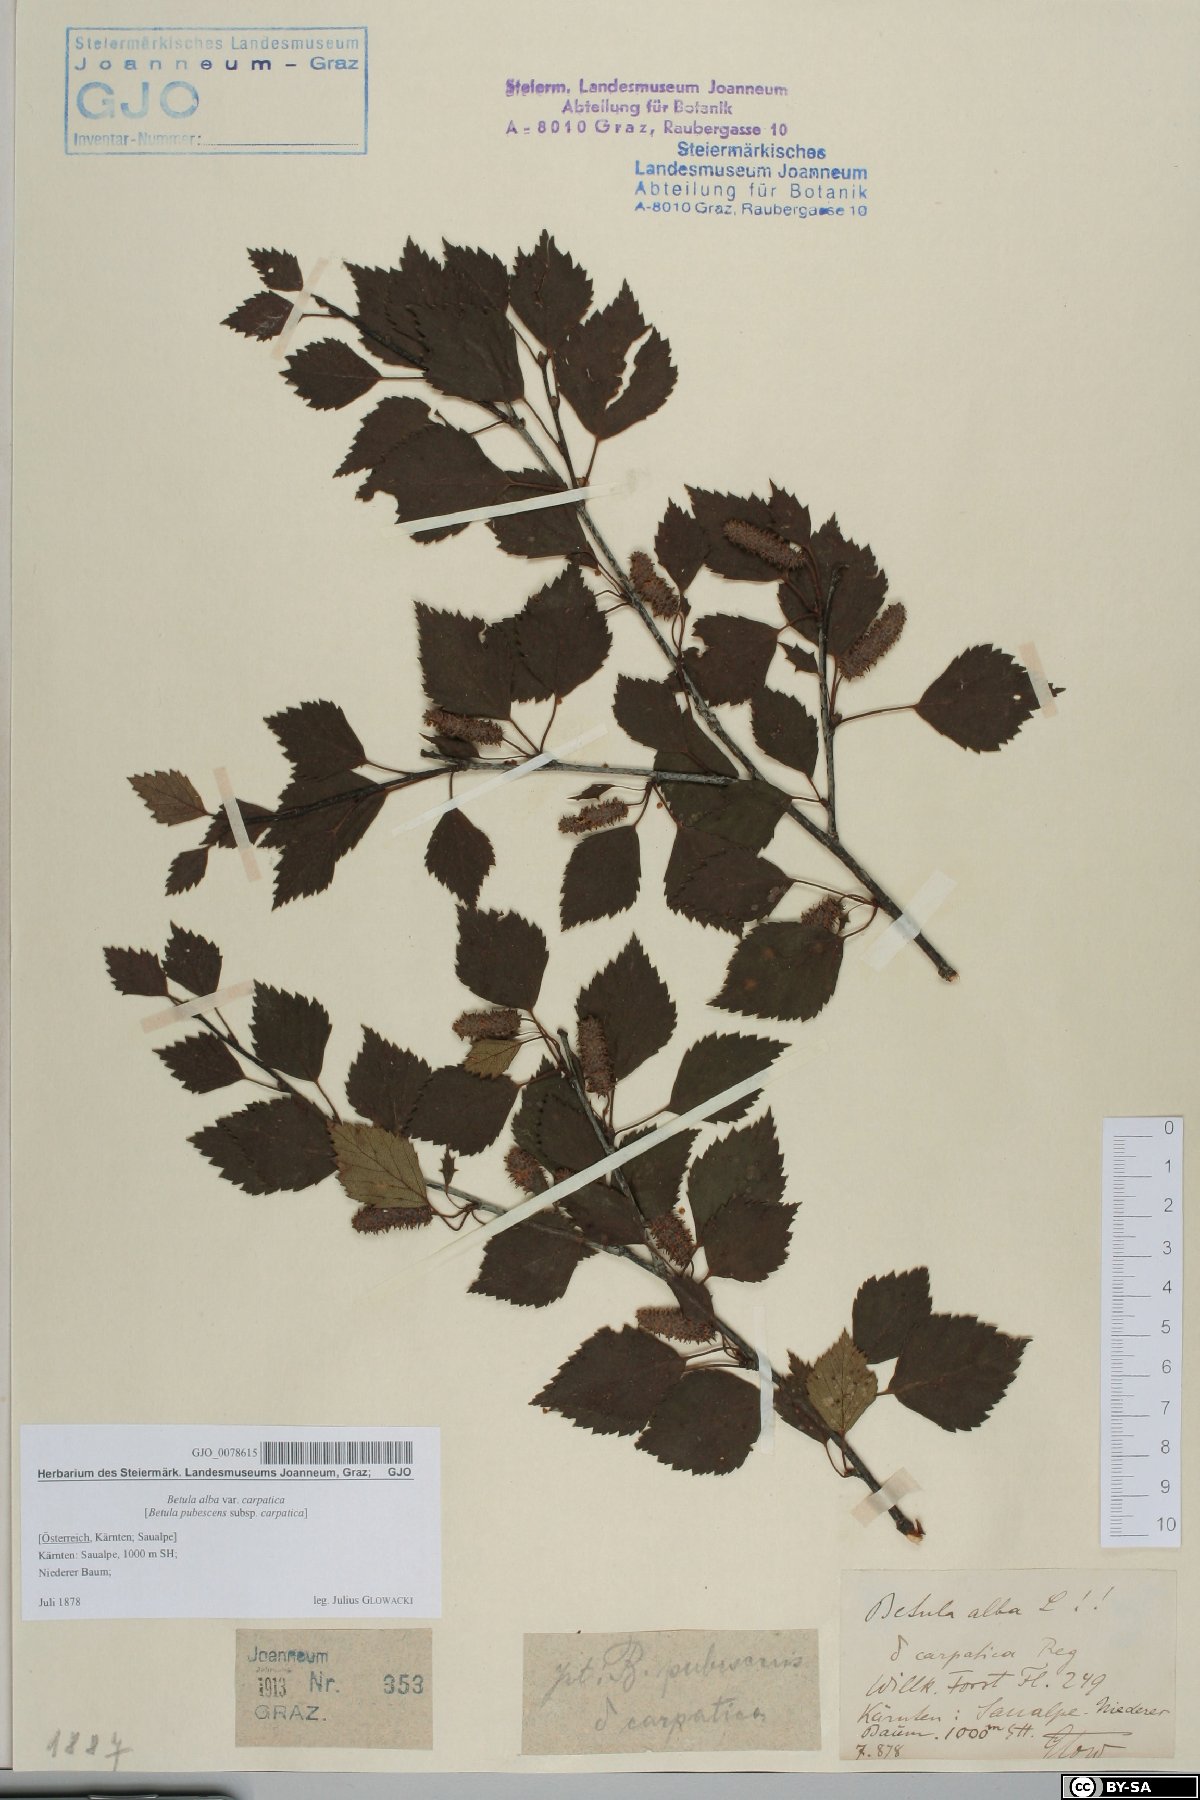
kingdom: Plantae
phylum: Tracheophyta
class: Magnoliopsida
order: Fagales
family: Betulaceae
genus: Betula
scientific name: Betula pubescens
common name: Downy birch
